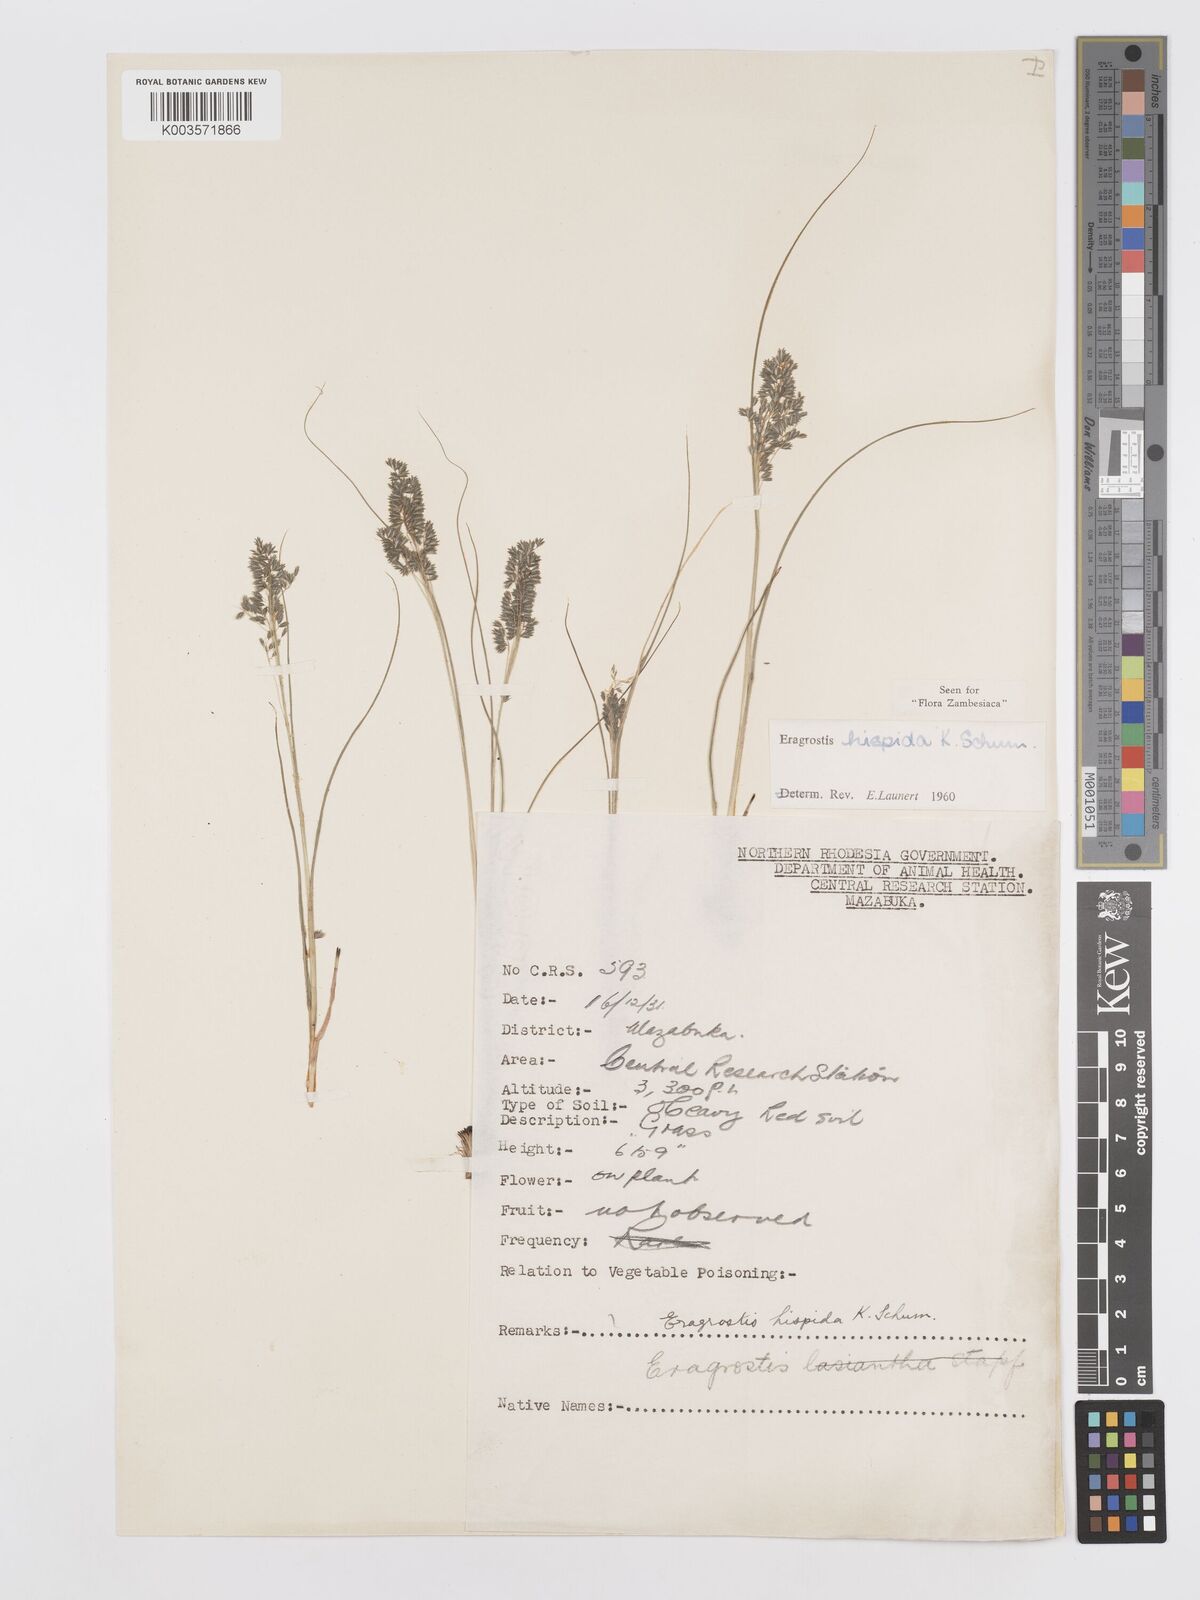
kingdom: Plantae
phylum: Tracheophyta
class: Liliopsida
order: Poales
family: Poaceae
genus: Eragrostis
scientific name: Eragrostis hispida
